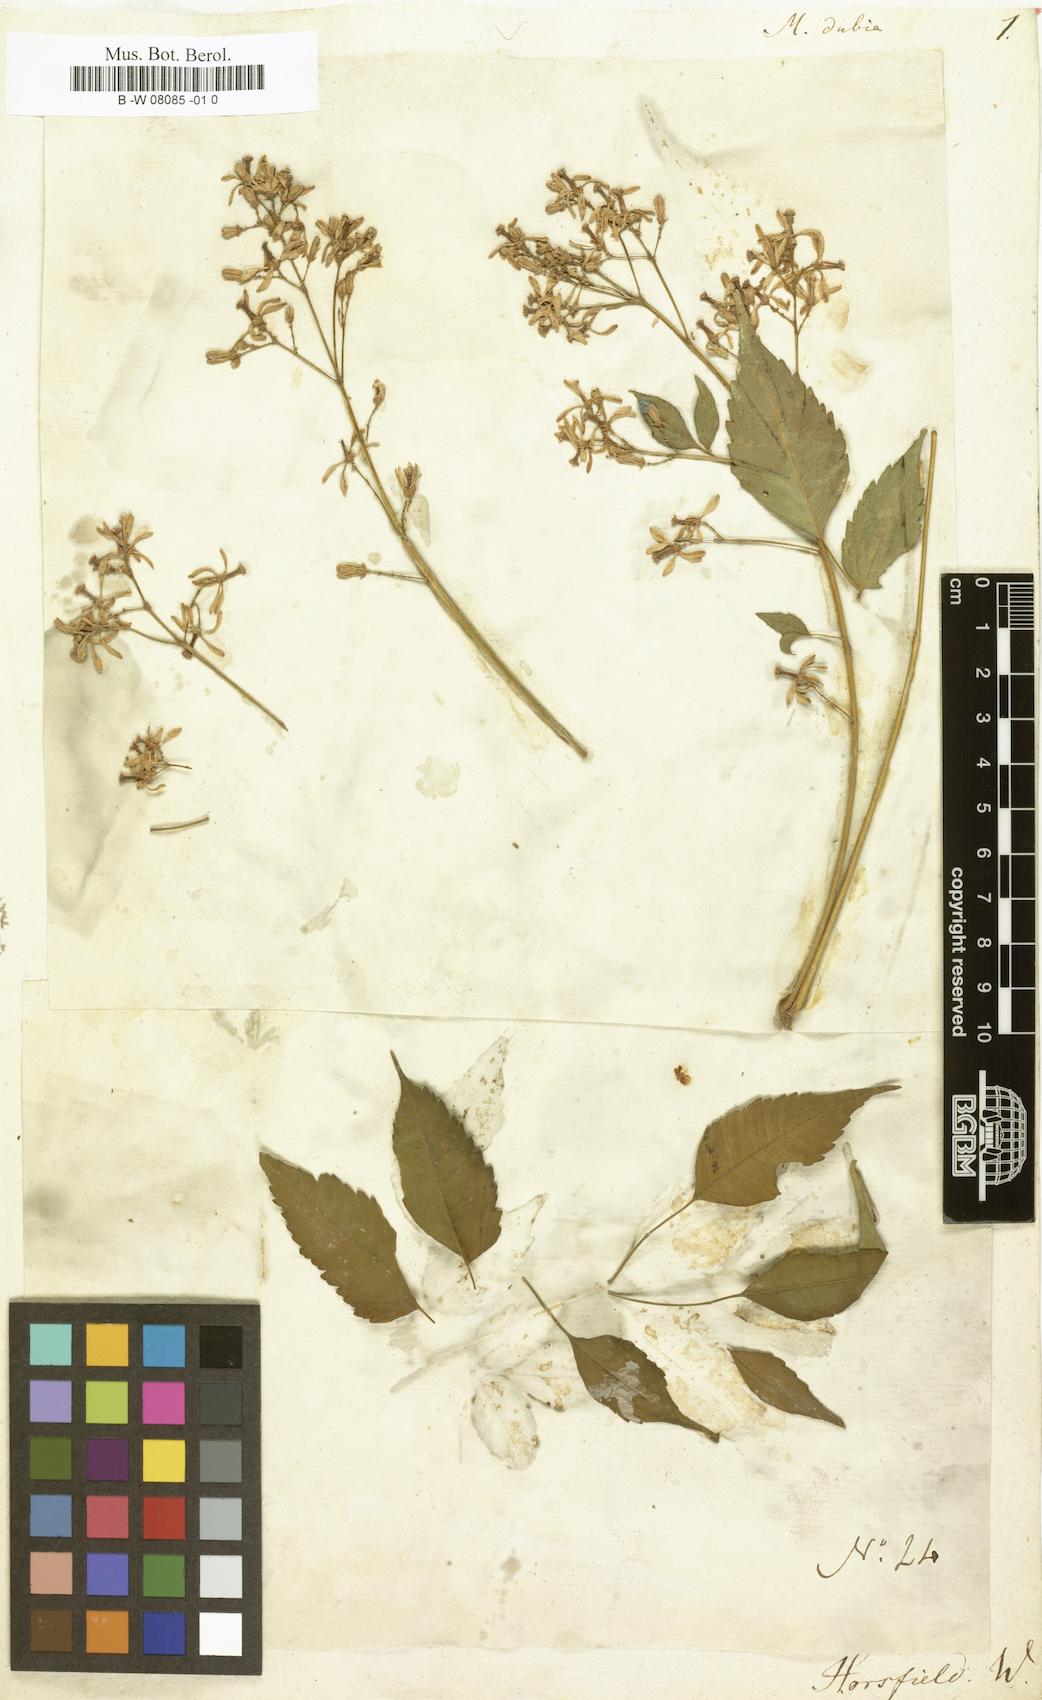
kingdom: Plantae
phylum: Tracheophyta
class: Magnoliopsida
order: Sapindales
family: Meliaceae
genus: Melia
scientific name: Melia dubia
